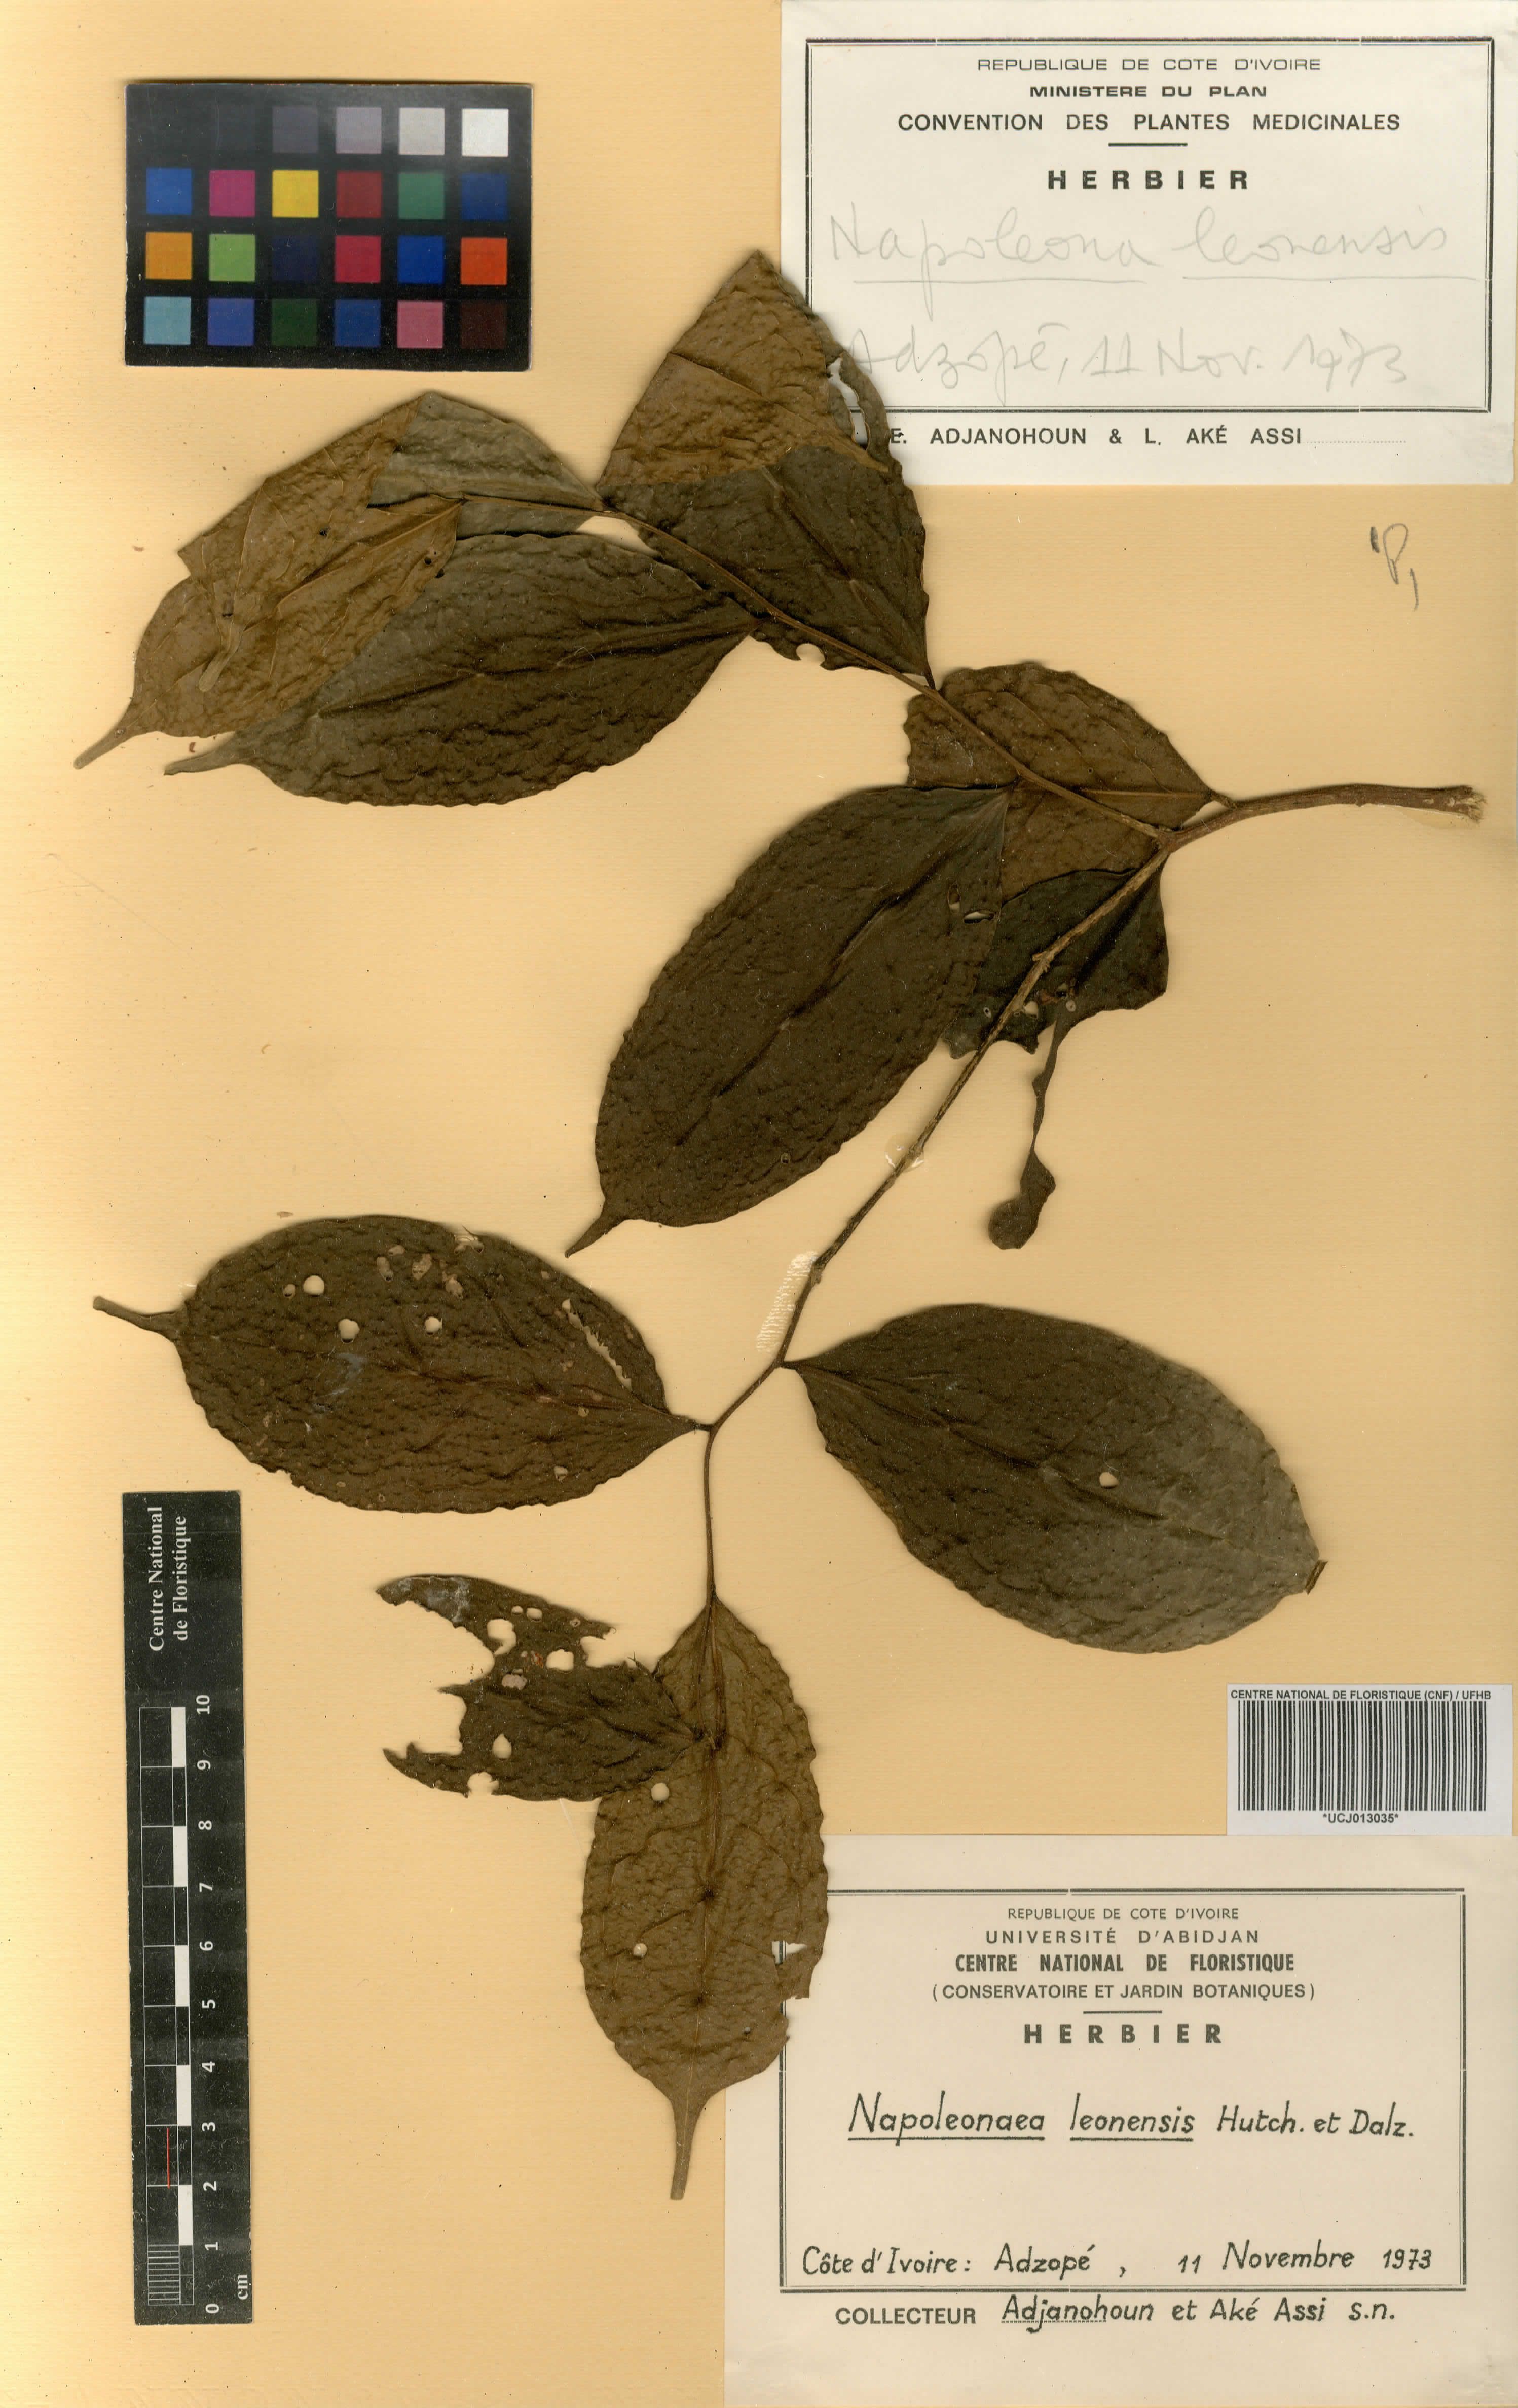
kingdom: Plantae
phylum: Tracheophyta
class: Magnoliopsida
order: Ericales
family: Lecythidaceae
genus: Napoleonaea
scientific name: Napoleonaea leonensis
